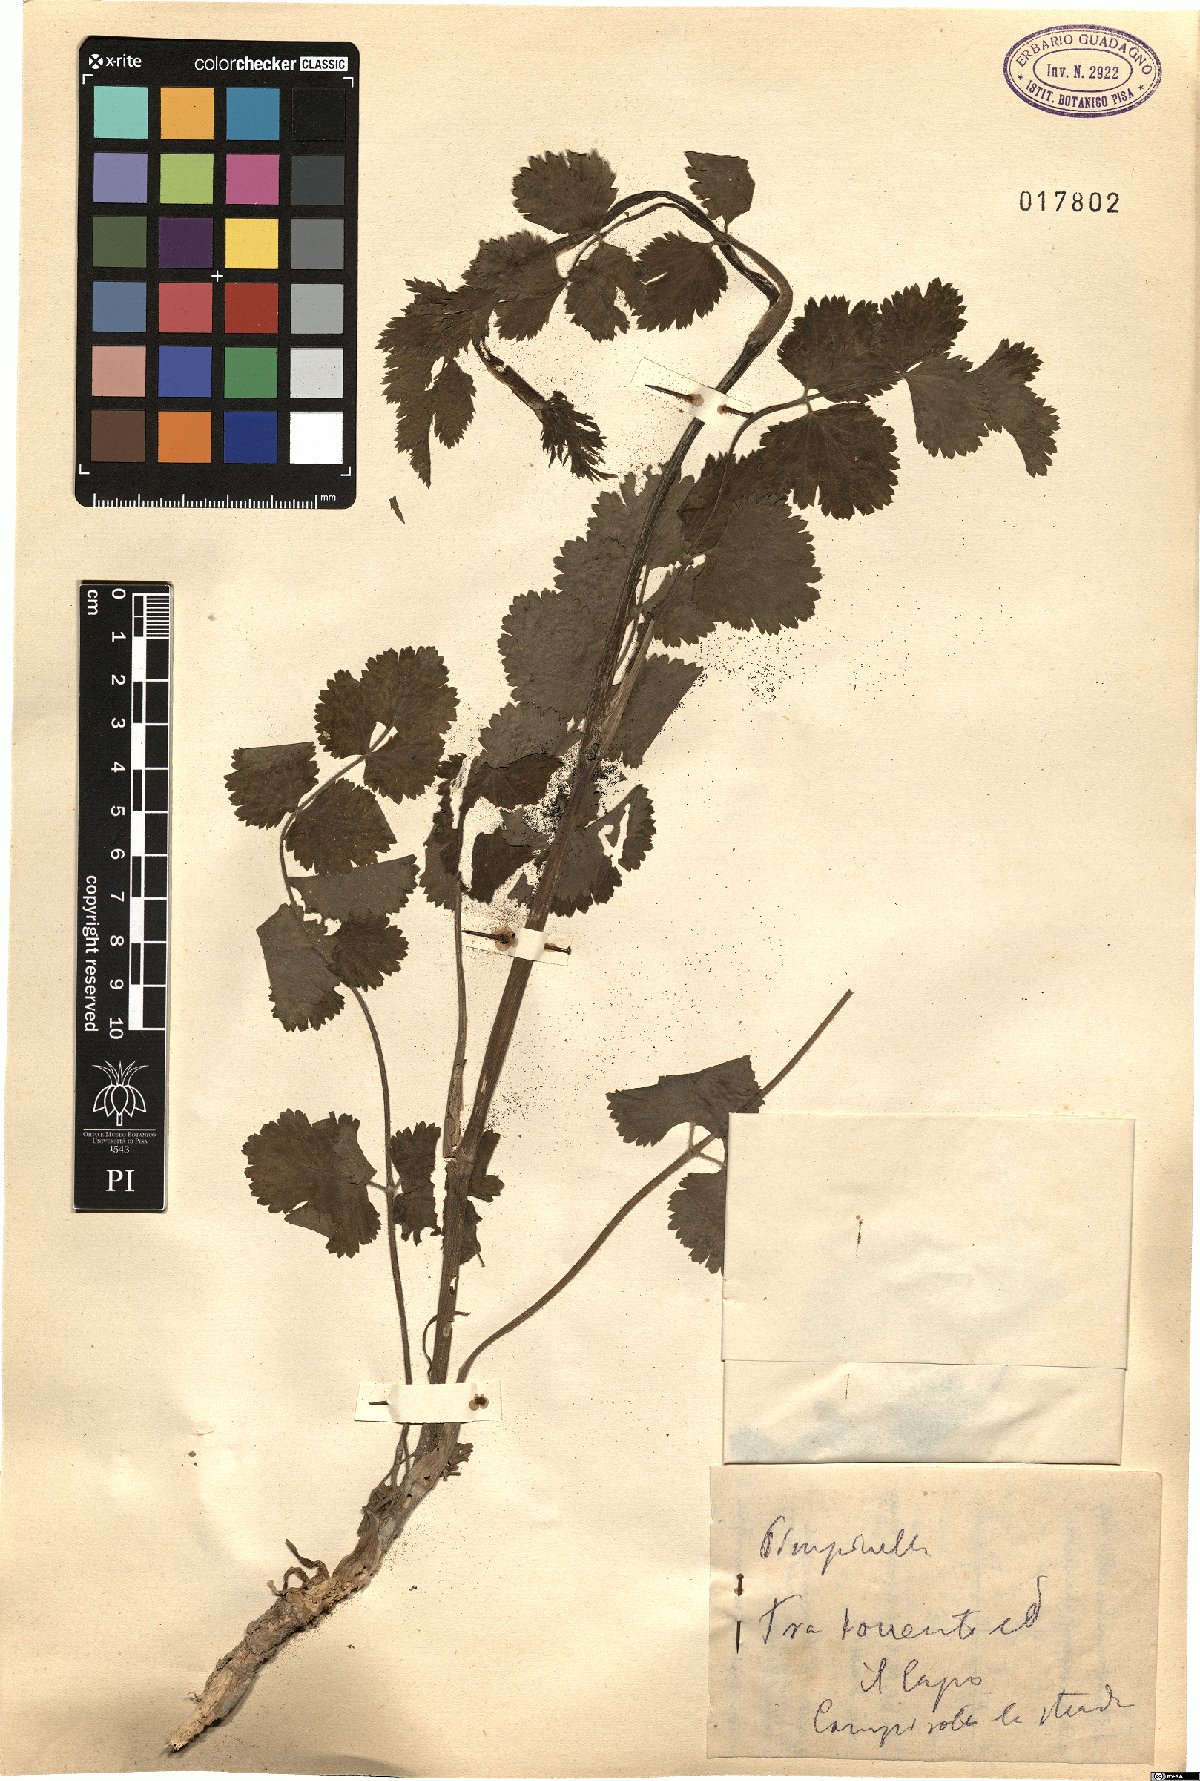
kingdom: Plantae
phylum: Tracheophyta
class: Magnoliopsida
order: Apiales
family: Apiaceae
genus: Pimpinella
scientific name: Pimpinella
